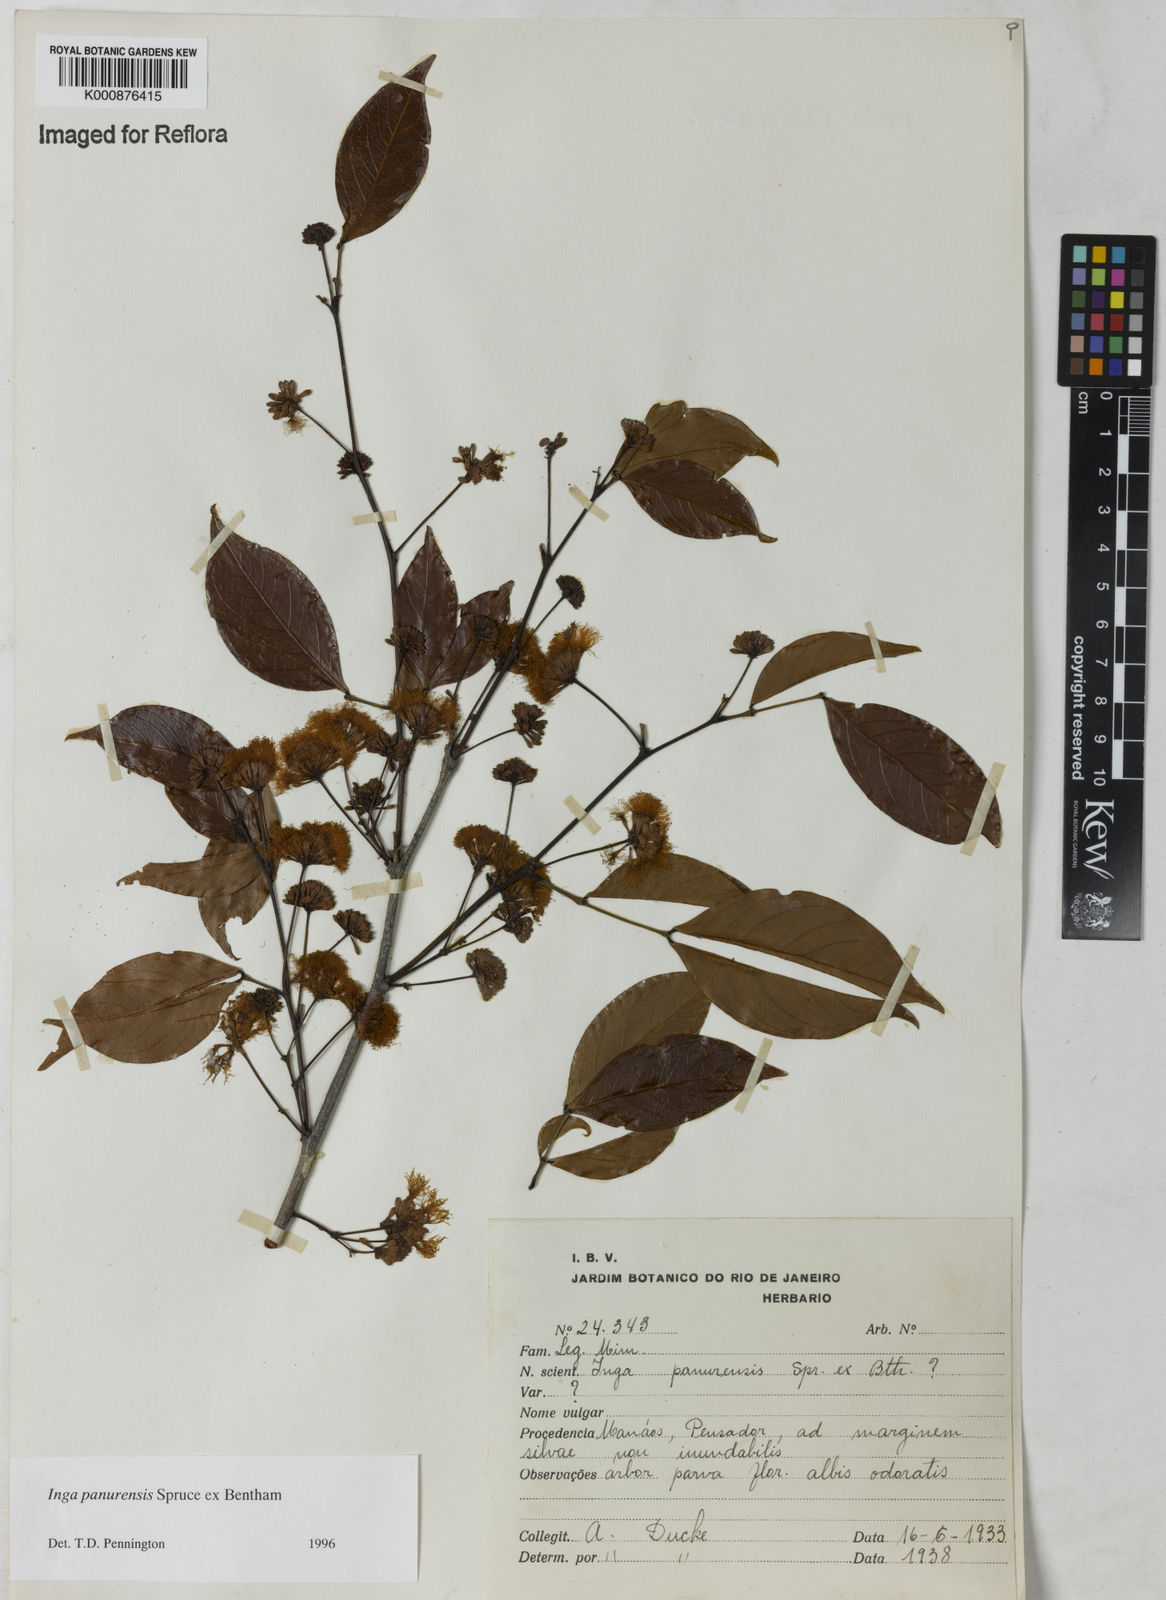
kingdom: Plantae
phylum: Tracheophyta
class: Magnoliopsida
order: Fabales
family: Fabaceae
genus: Inga
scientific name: Inga panurensis
